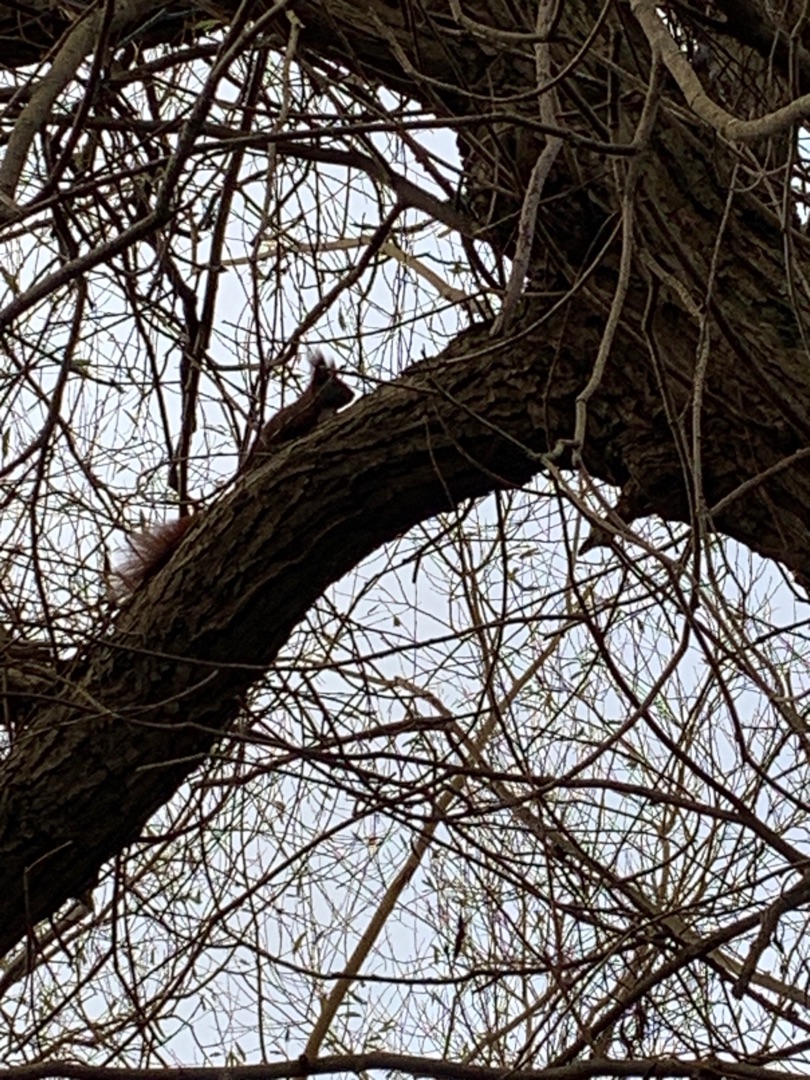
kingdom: Animalia
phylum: Chordata
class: Mammalia
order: Rodentia
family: Sciuridae
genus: Sciurus
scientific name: Sciurus vulgaris
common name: Egern
